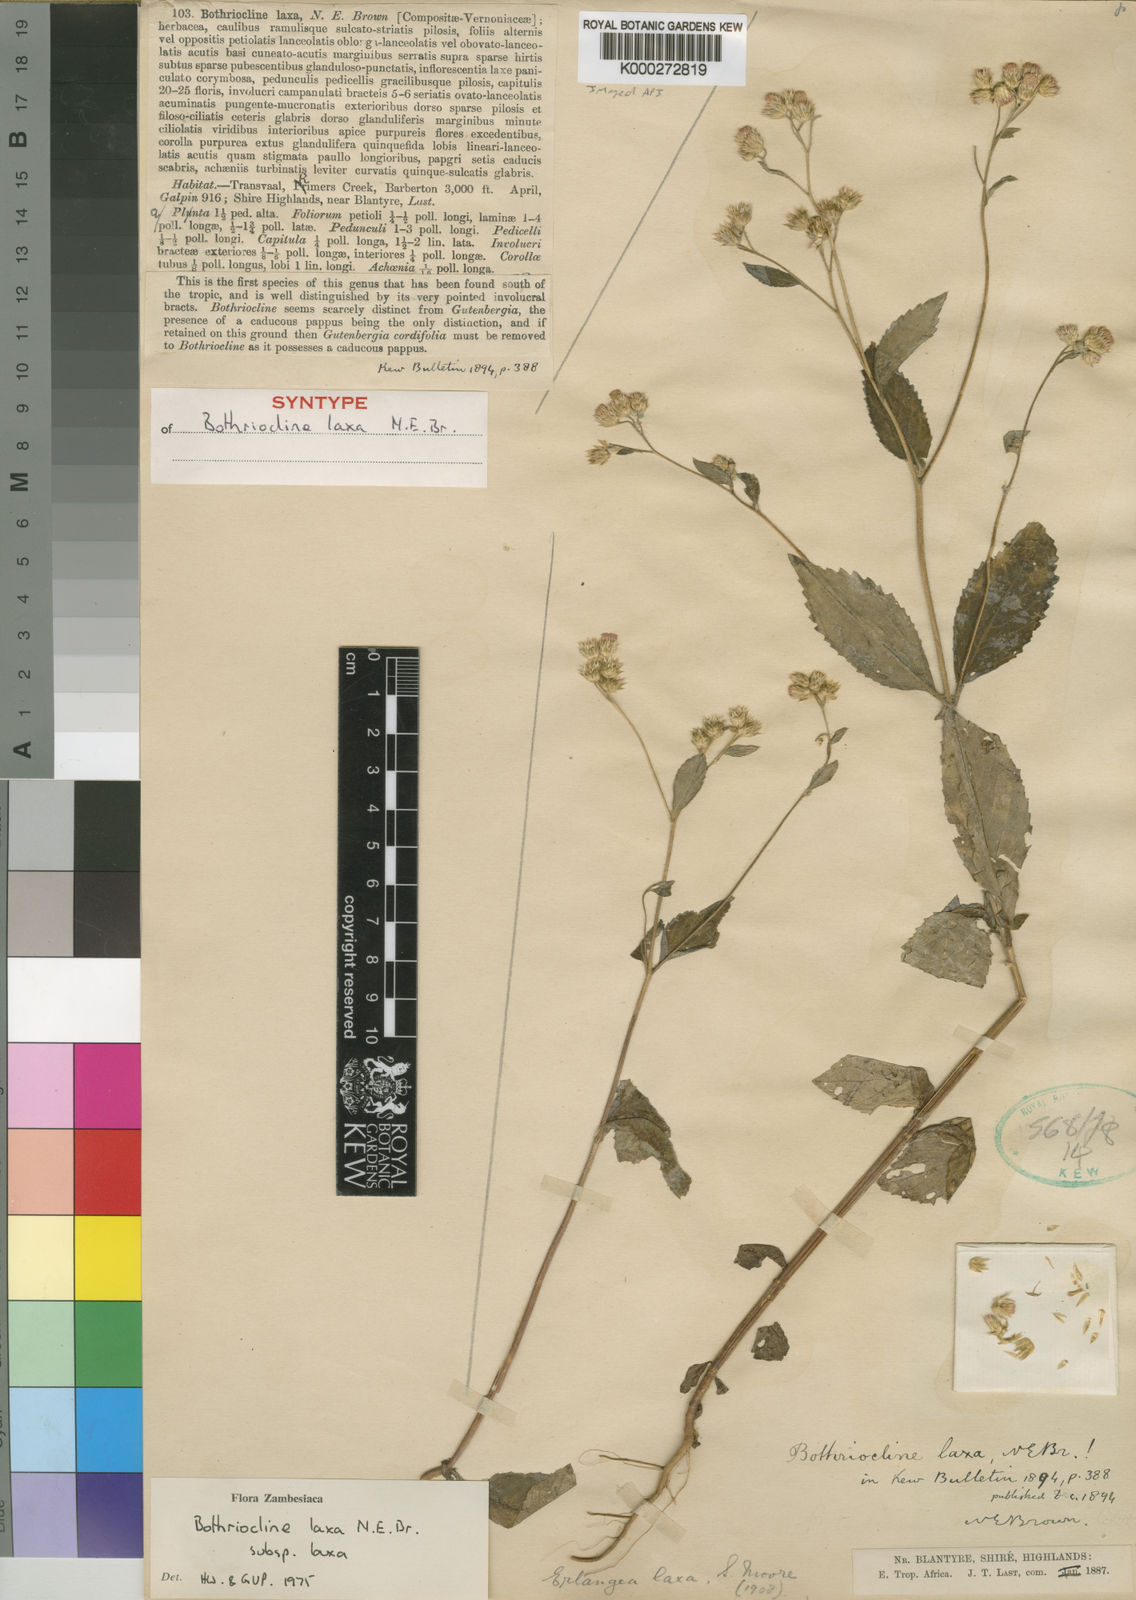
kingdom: Plantae
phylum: Tracheophyta
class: Magnoliopsida
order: Asterales
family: Asteraceae
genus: Bothriocline
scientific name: Bothriocline laxa
